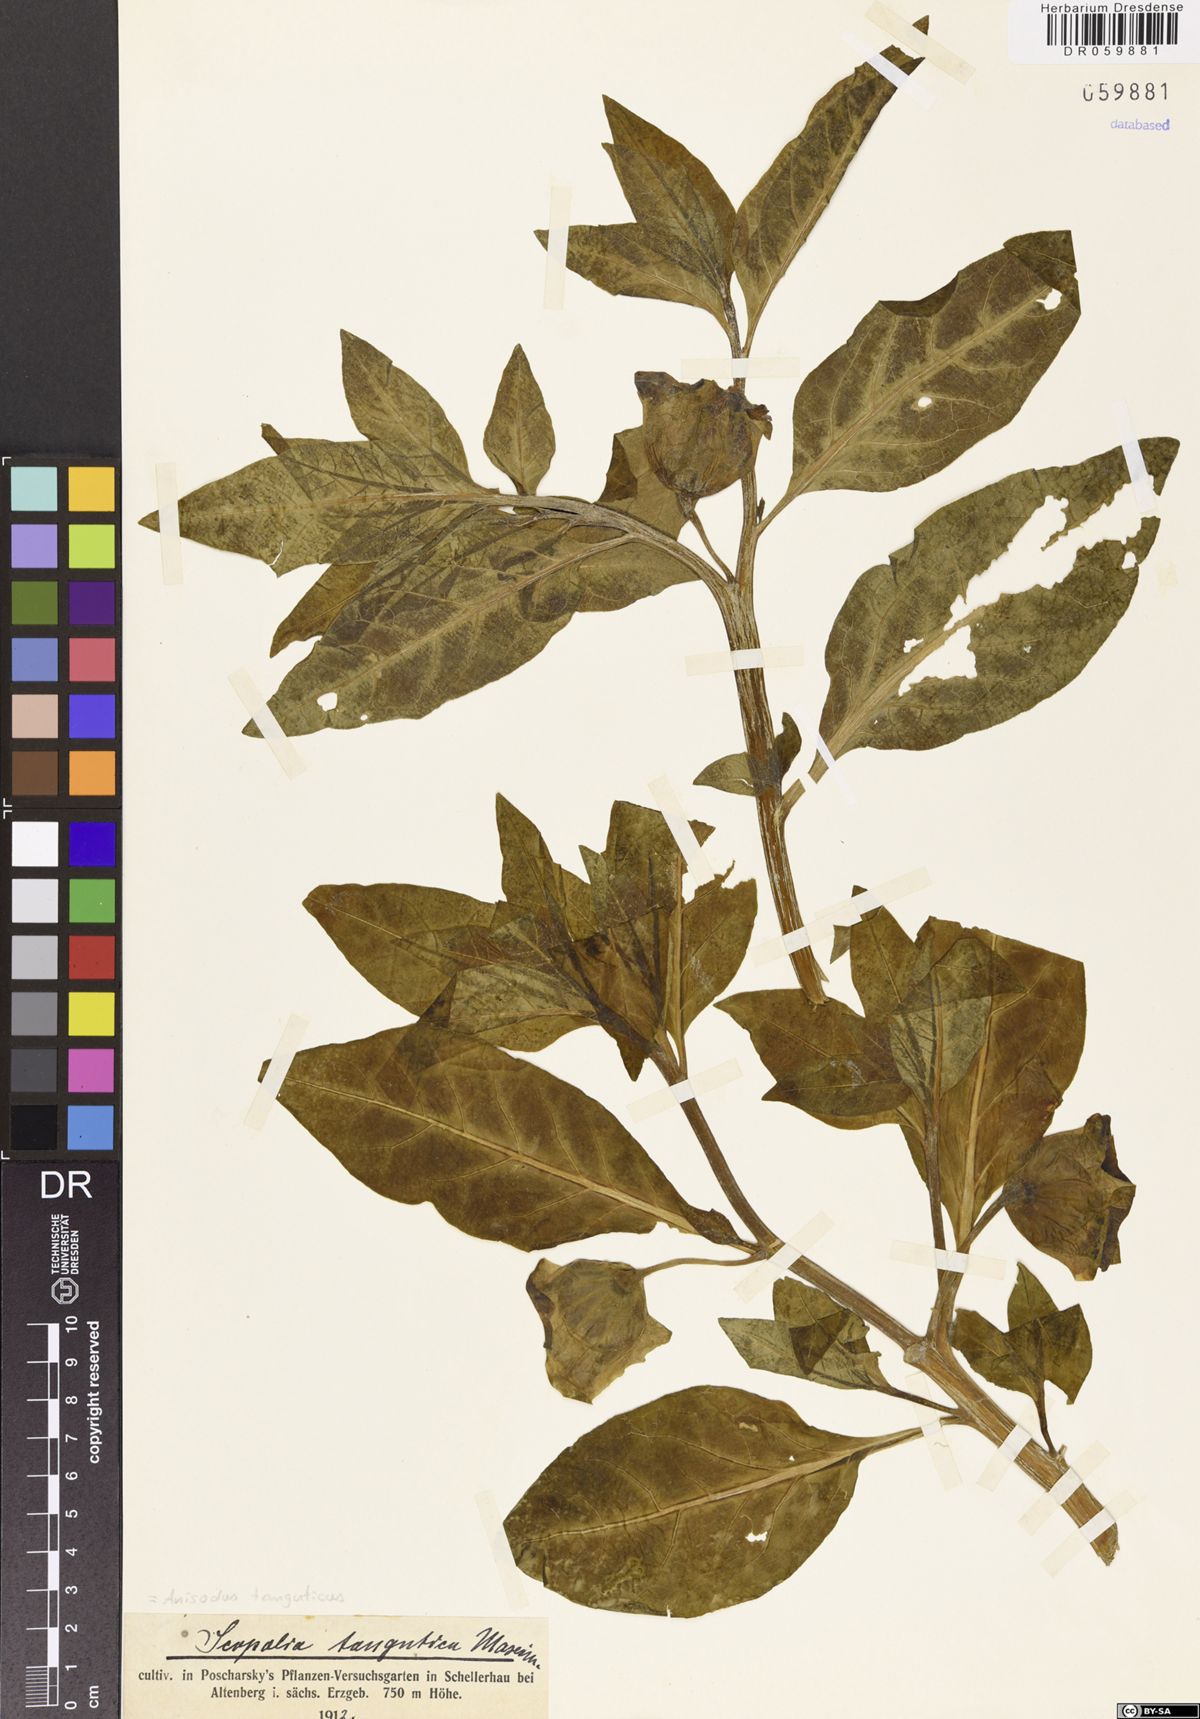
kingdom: Plantae
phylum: Tracheophyta
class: Magnoliopsida
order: Solanales
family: Solanaceae
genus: Anisodus
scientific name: Anisodus tanguticus
